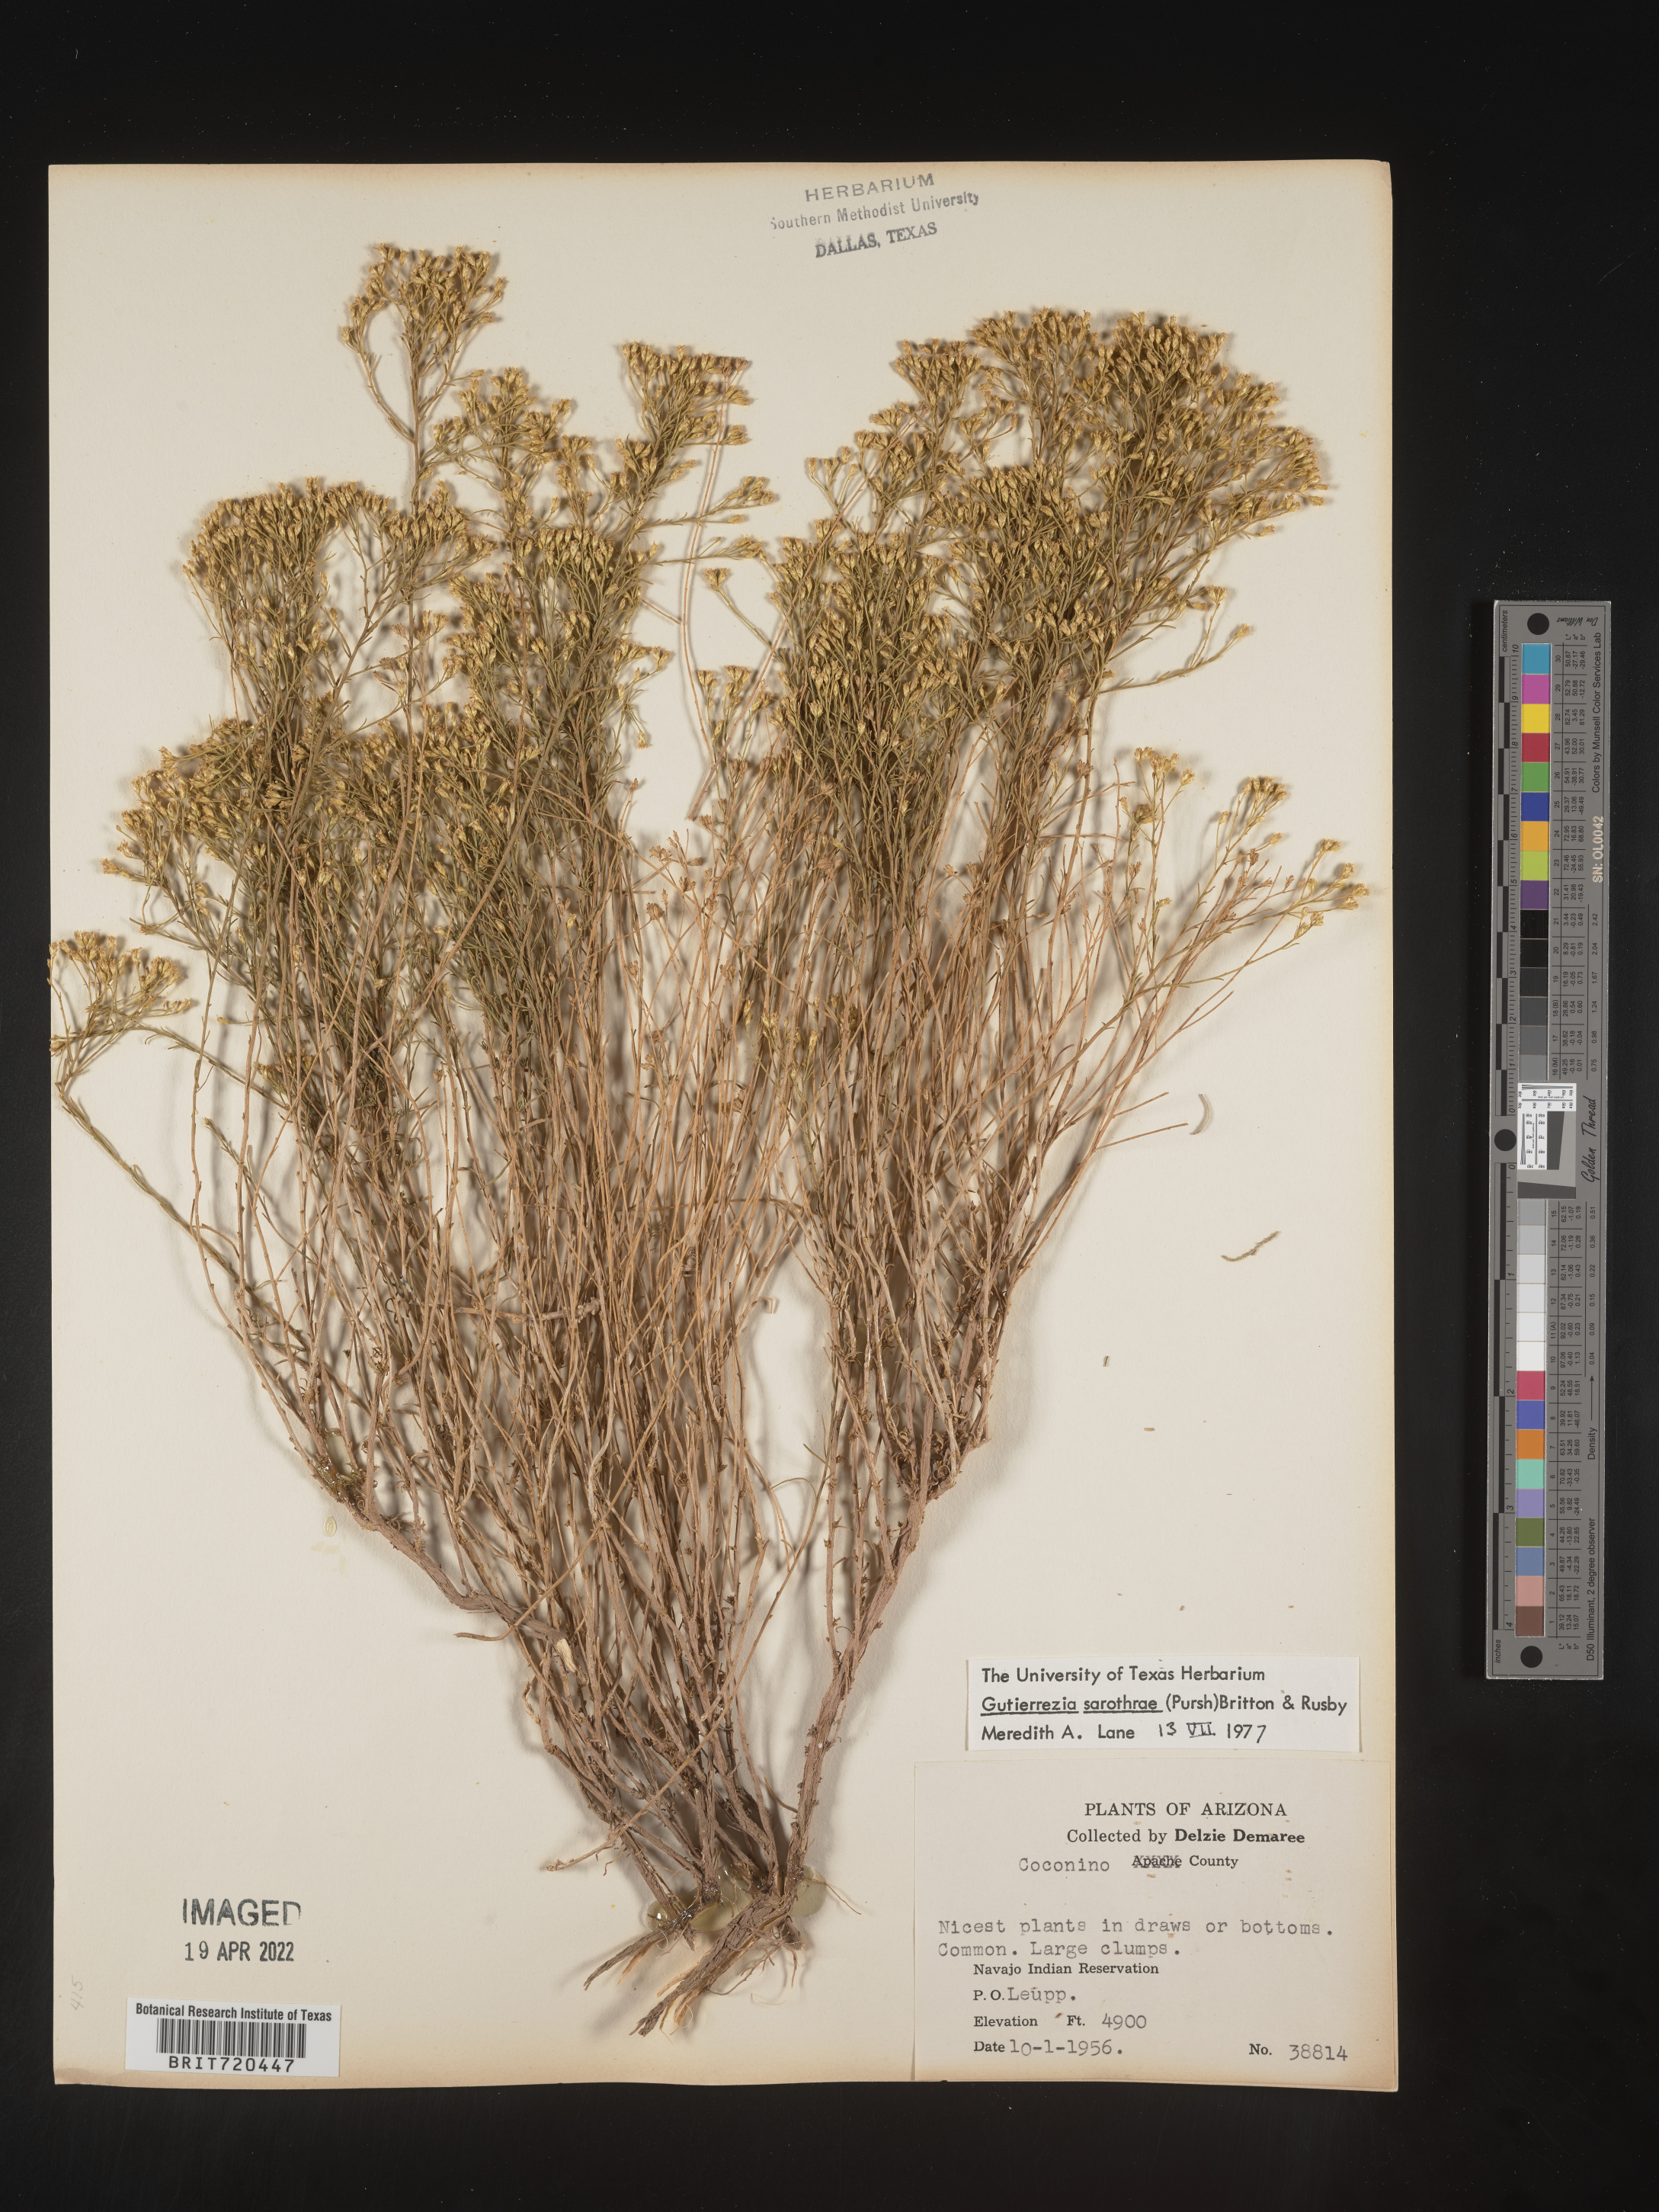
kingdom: Plantae
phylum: Tracheophyta
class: Magnoliopsida
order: Asterales
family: Asteraceae
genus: Gutierrezia
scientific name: Gutierrezia sarothrae
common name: Broom snakeweed
